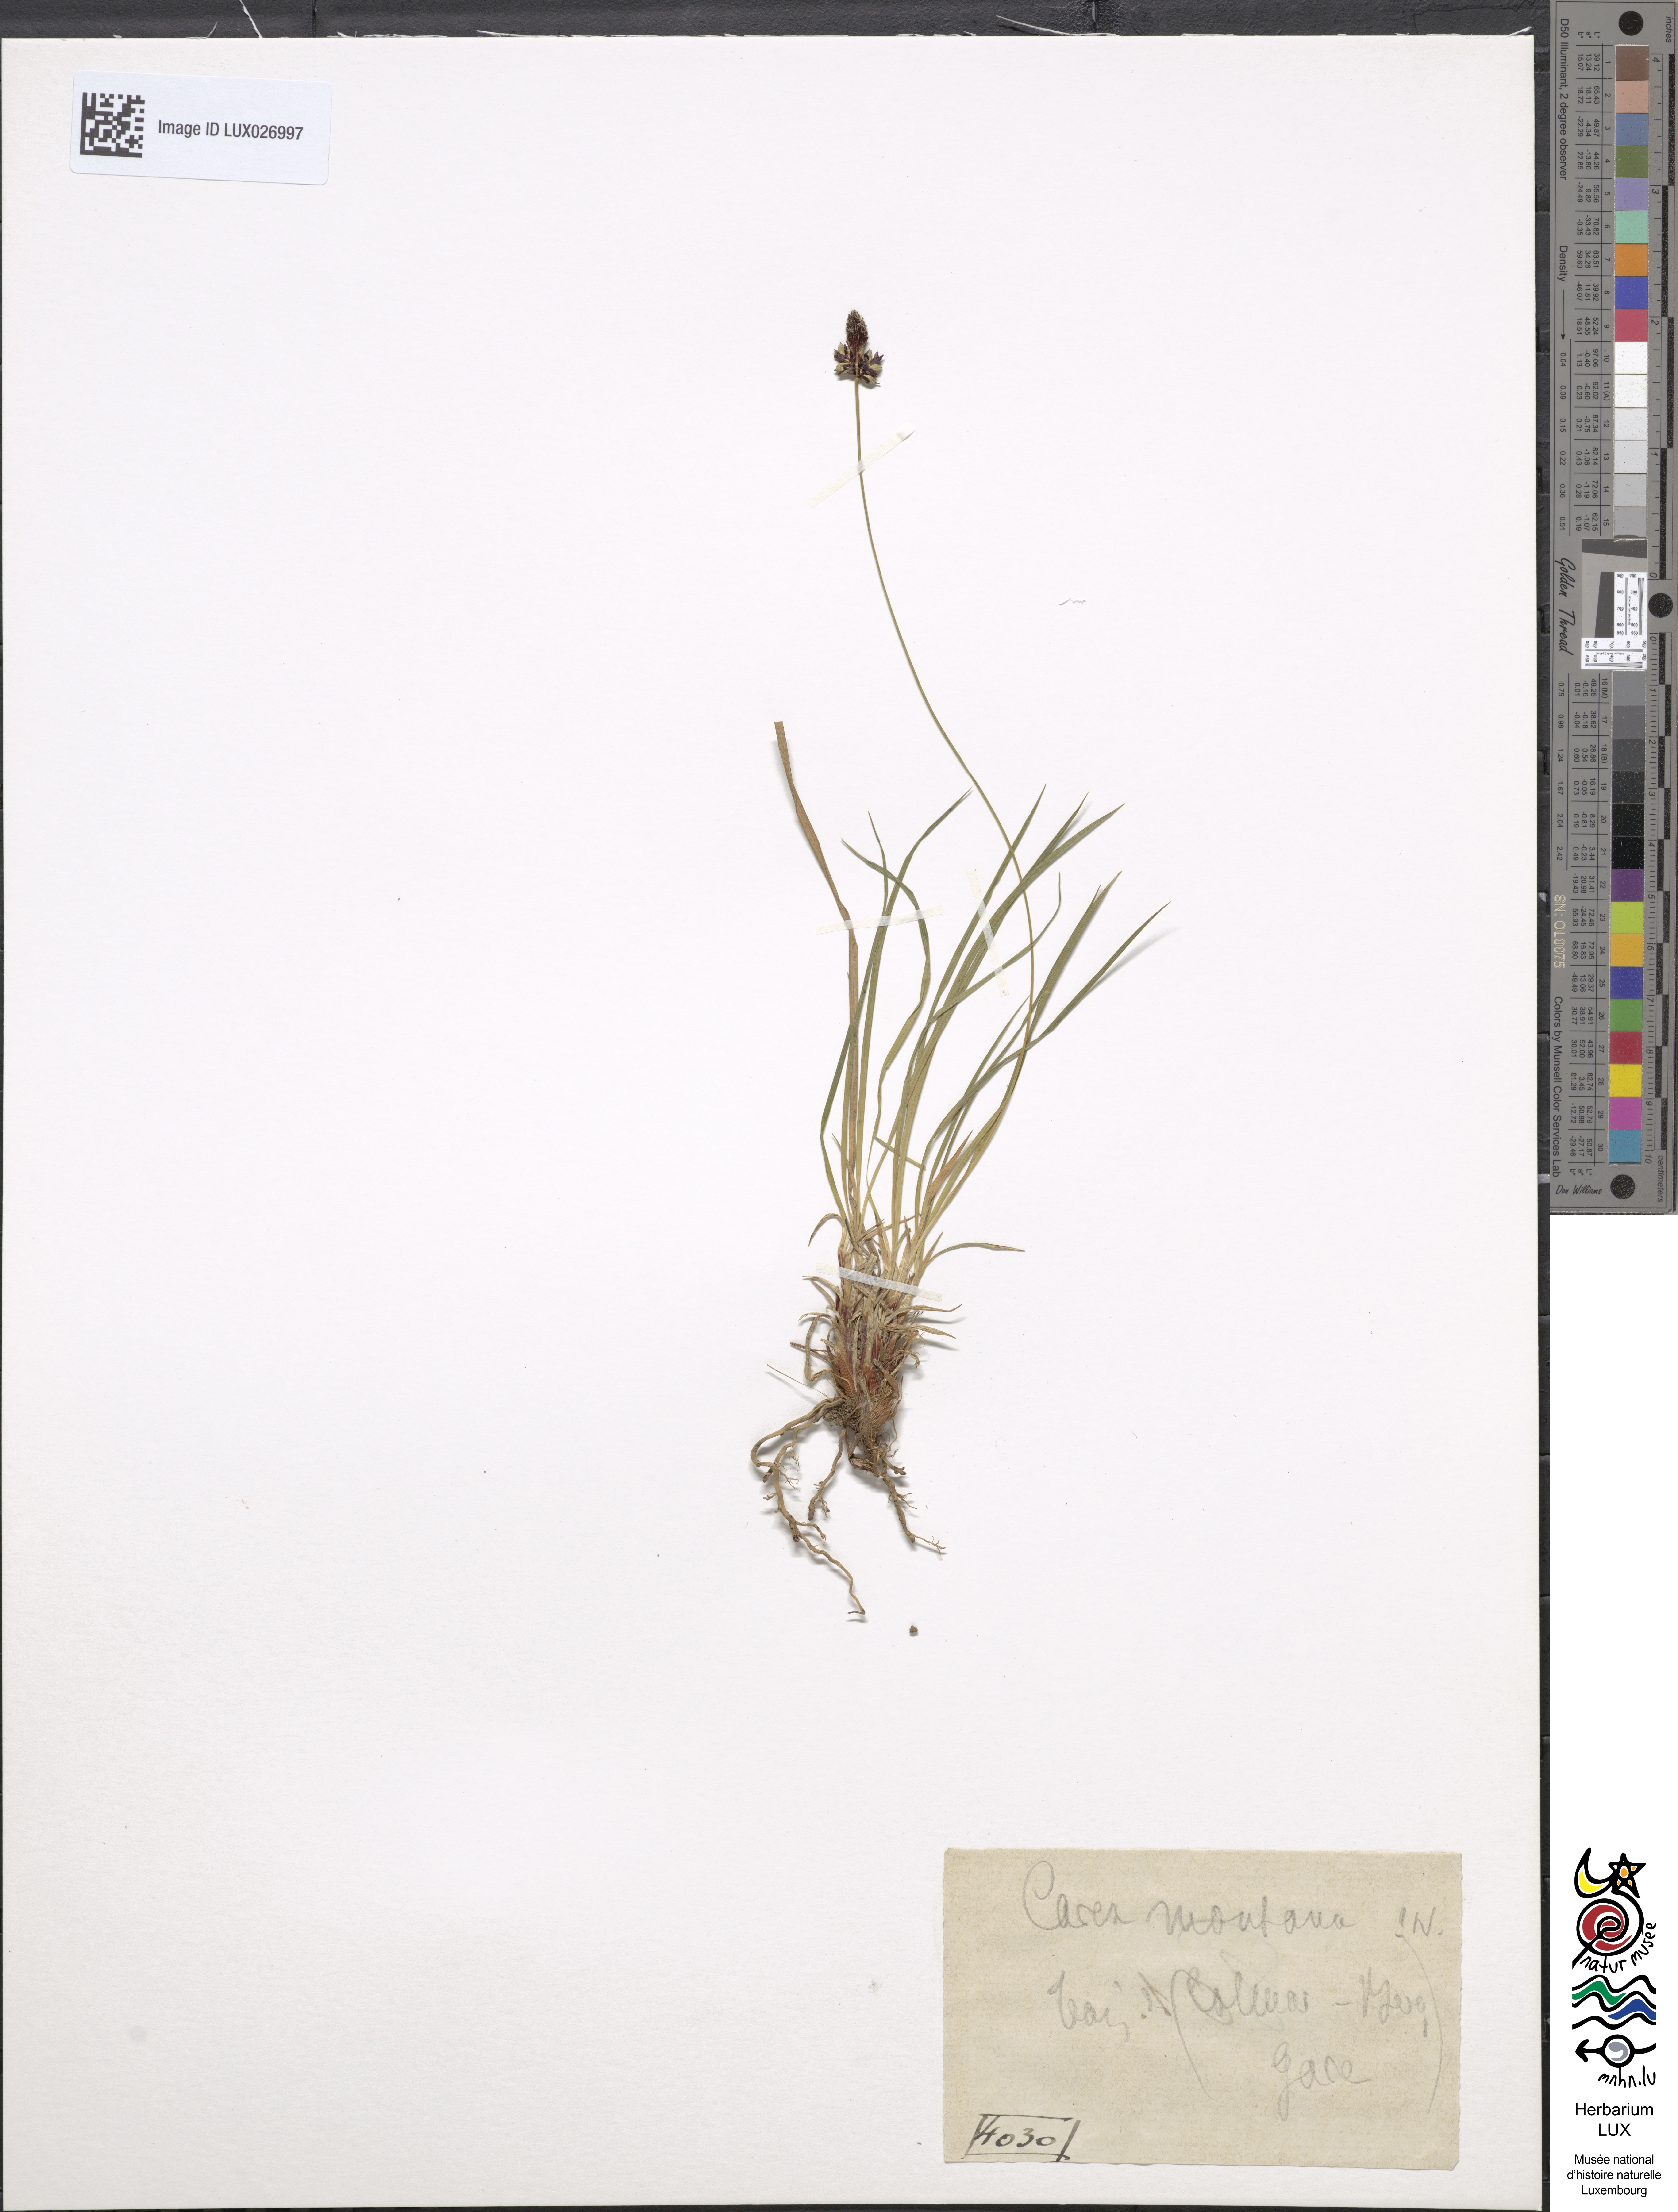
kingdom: Plantae
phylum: Tracheophyta
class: Liliopsida
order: Poales
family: Cyperaceae
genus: Carex
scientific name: Carex montana
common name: Soft-leaved sedge
